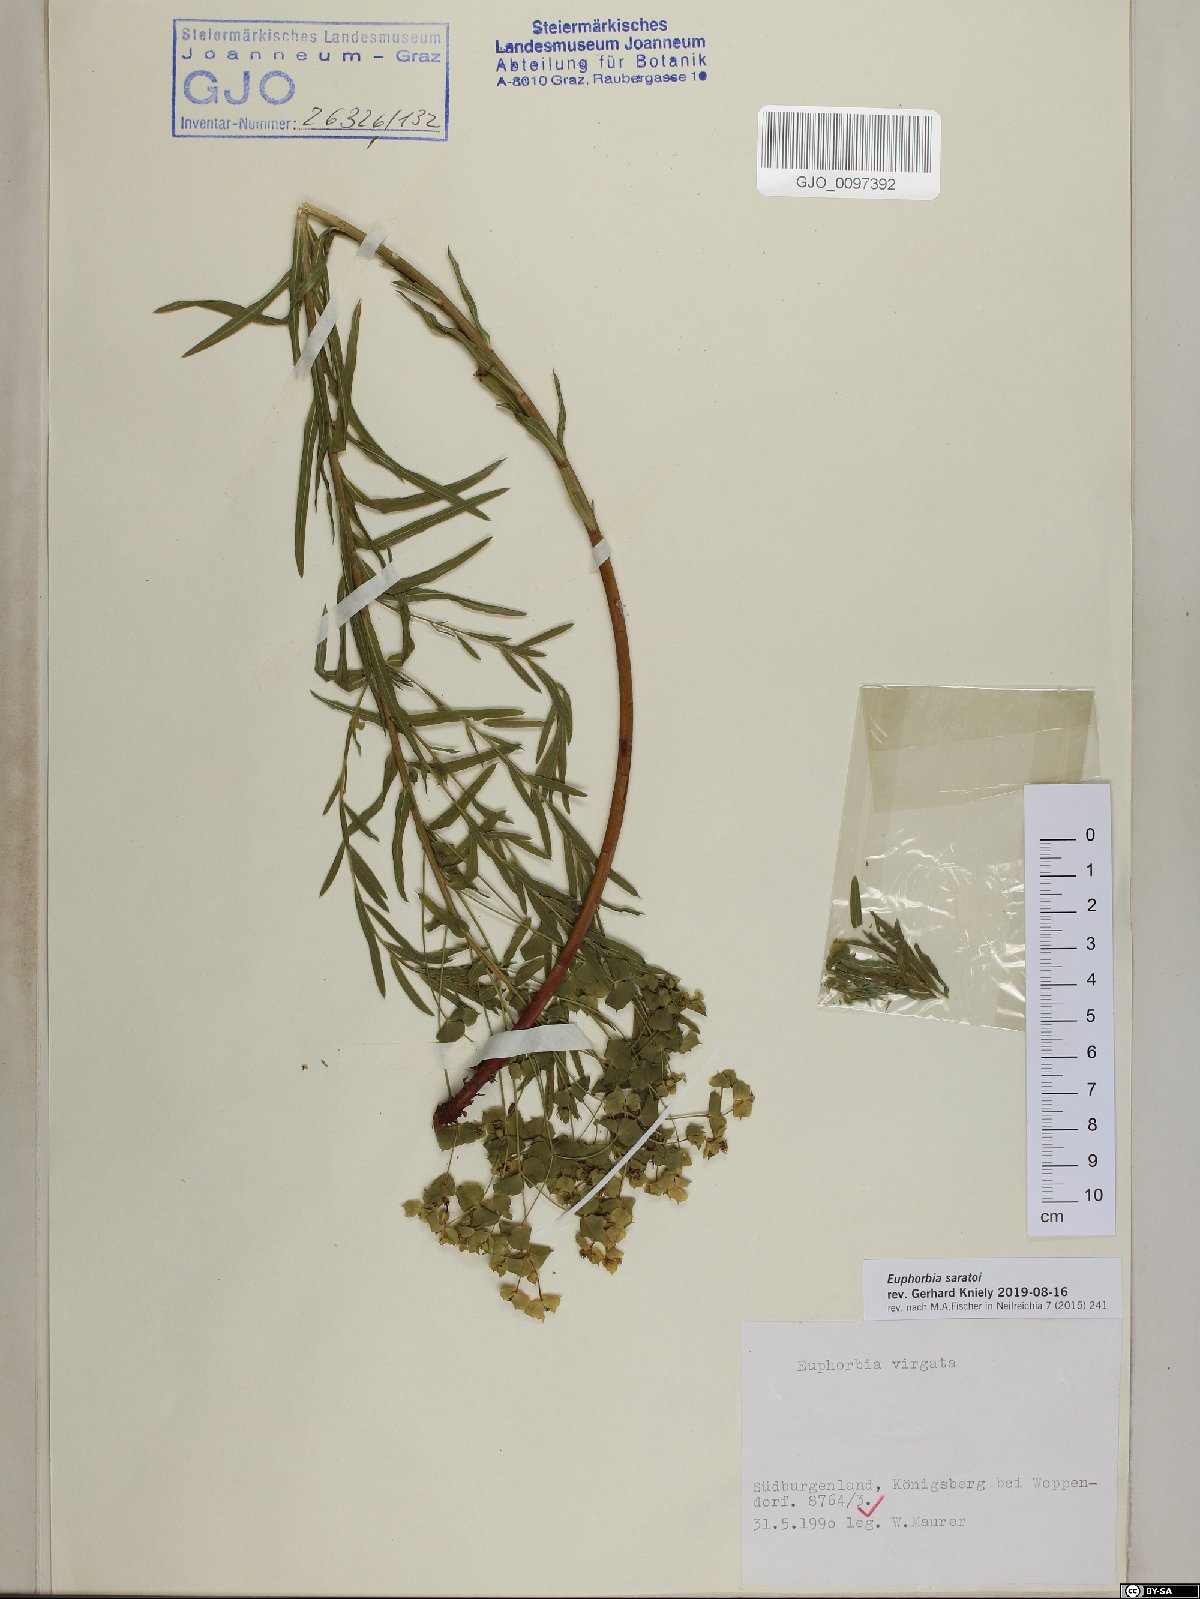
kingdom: Plantae
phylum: Tracheophyta
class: Magnoliopsida
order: Malpighiales
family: Euphorbiaceae
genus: Euphorbia
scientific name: Euphorbia saratoi
